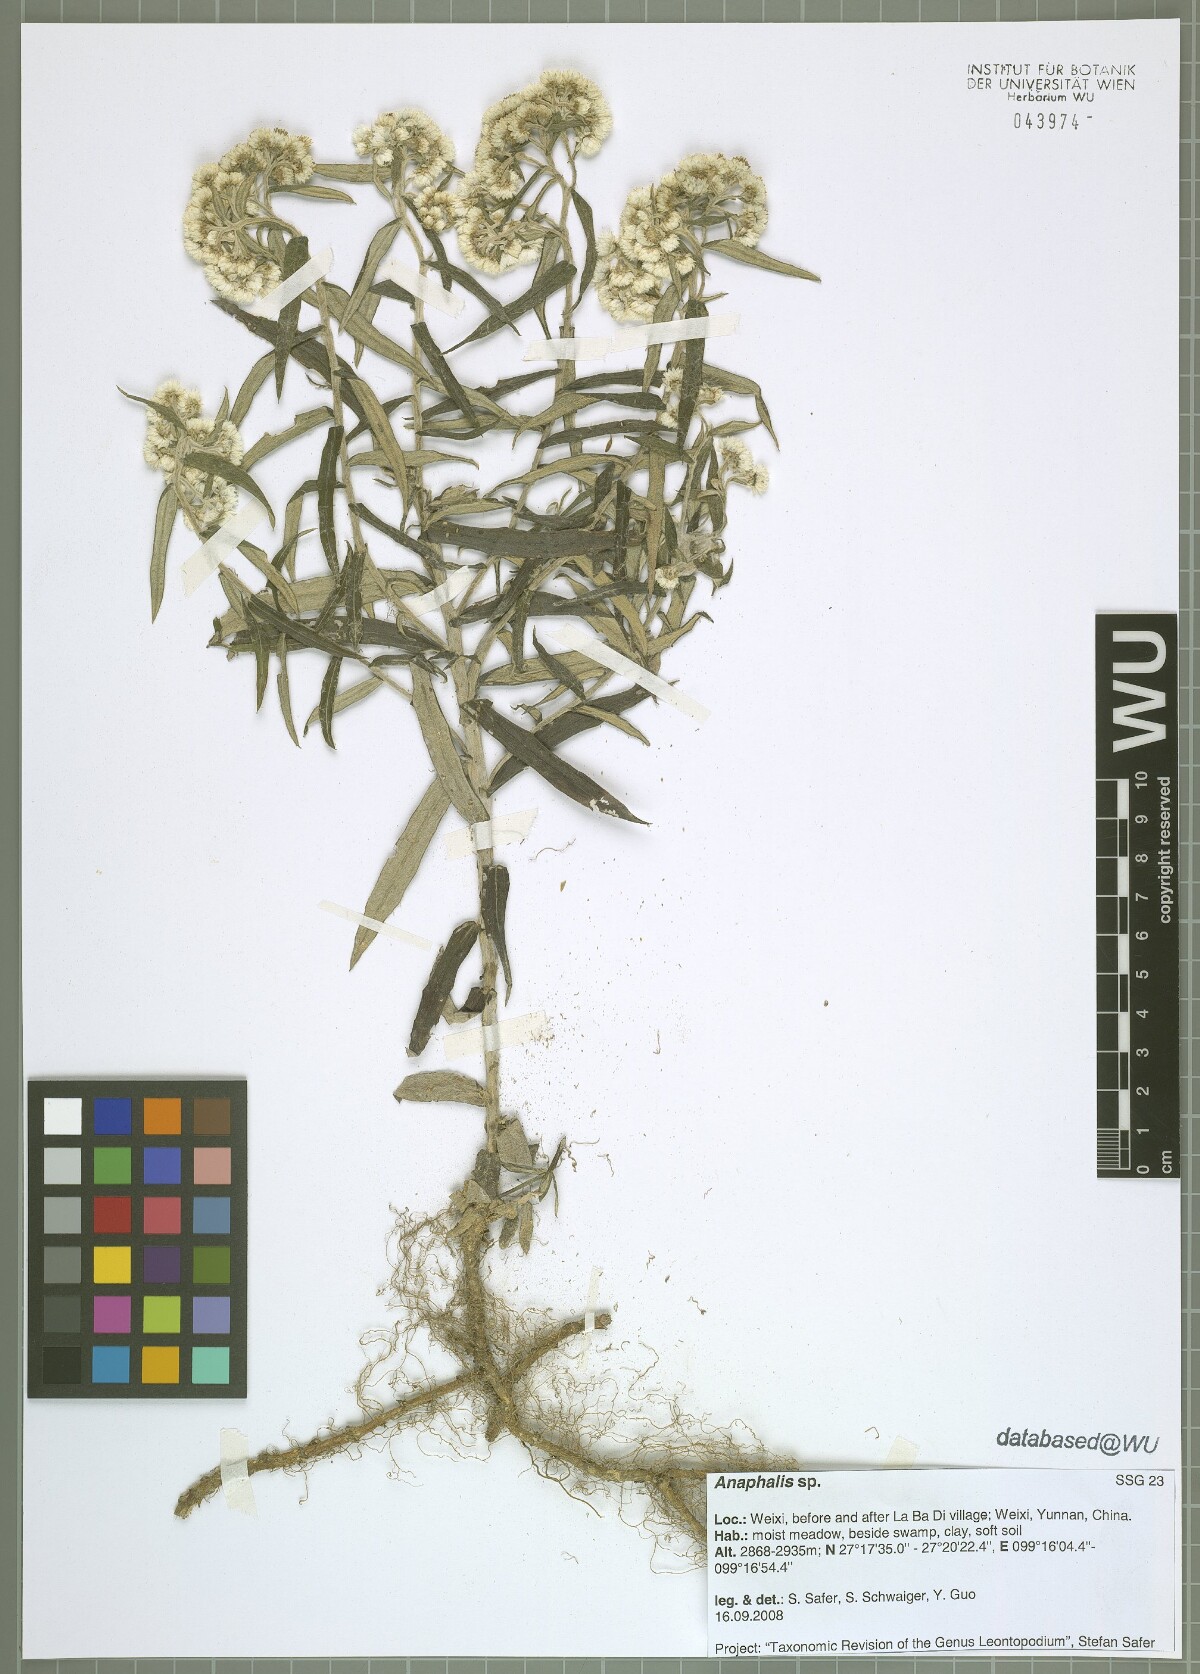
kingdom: Plantae
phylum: Tracheophyta
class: Magnoliopsida
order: Asterales
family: Asteraceae
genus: Anaphalis
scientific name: Anaphalis
